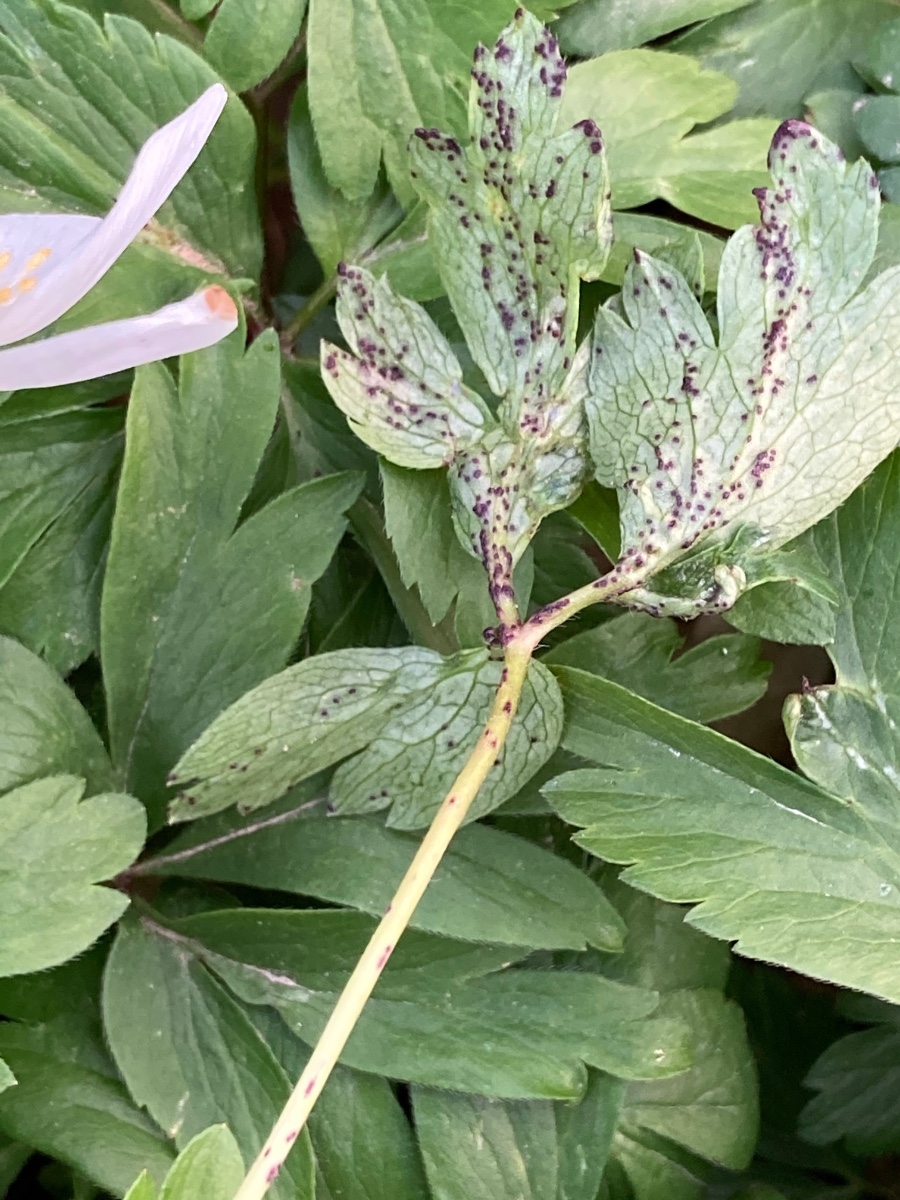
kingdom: Fungi
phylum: Chytridiomycota
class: Chytridiomycetes
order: Chytridiales
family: Synchytriaceae
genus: Synchytrium
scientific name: Synchytrium anemones
